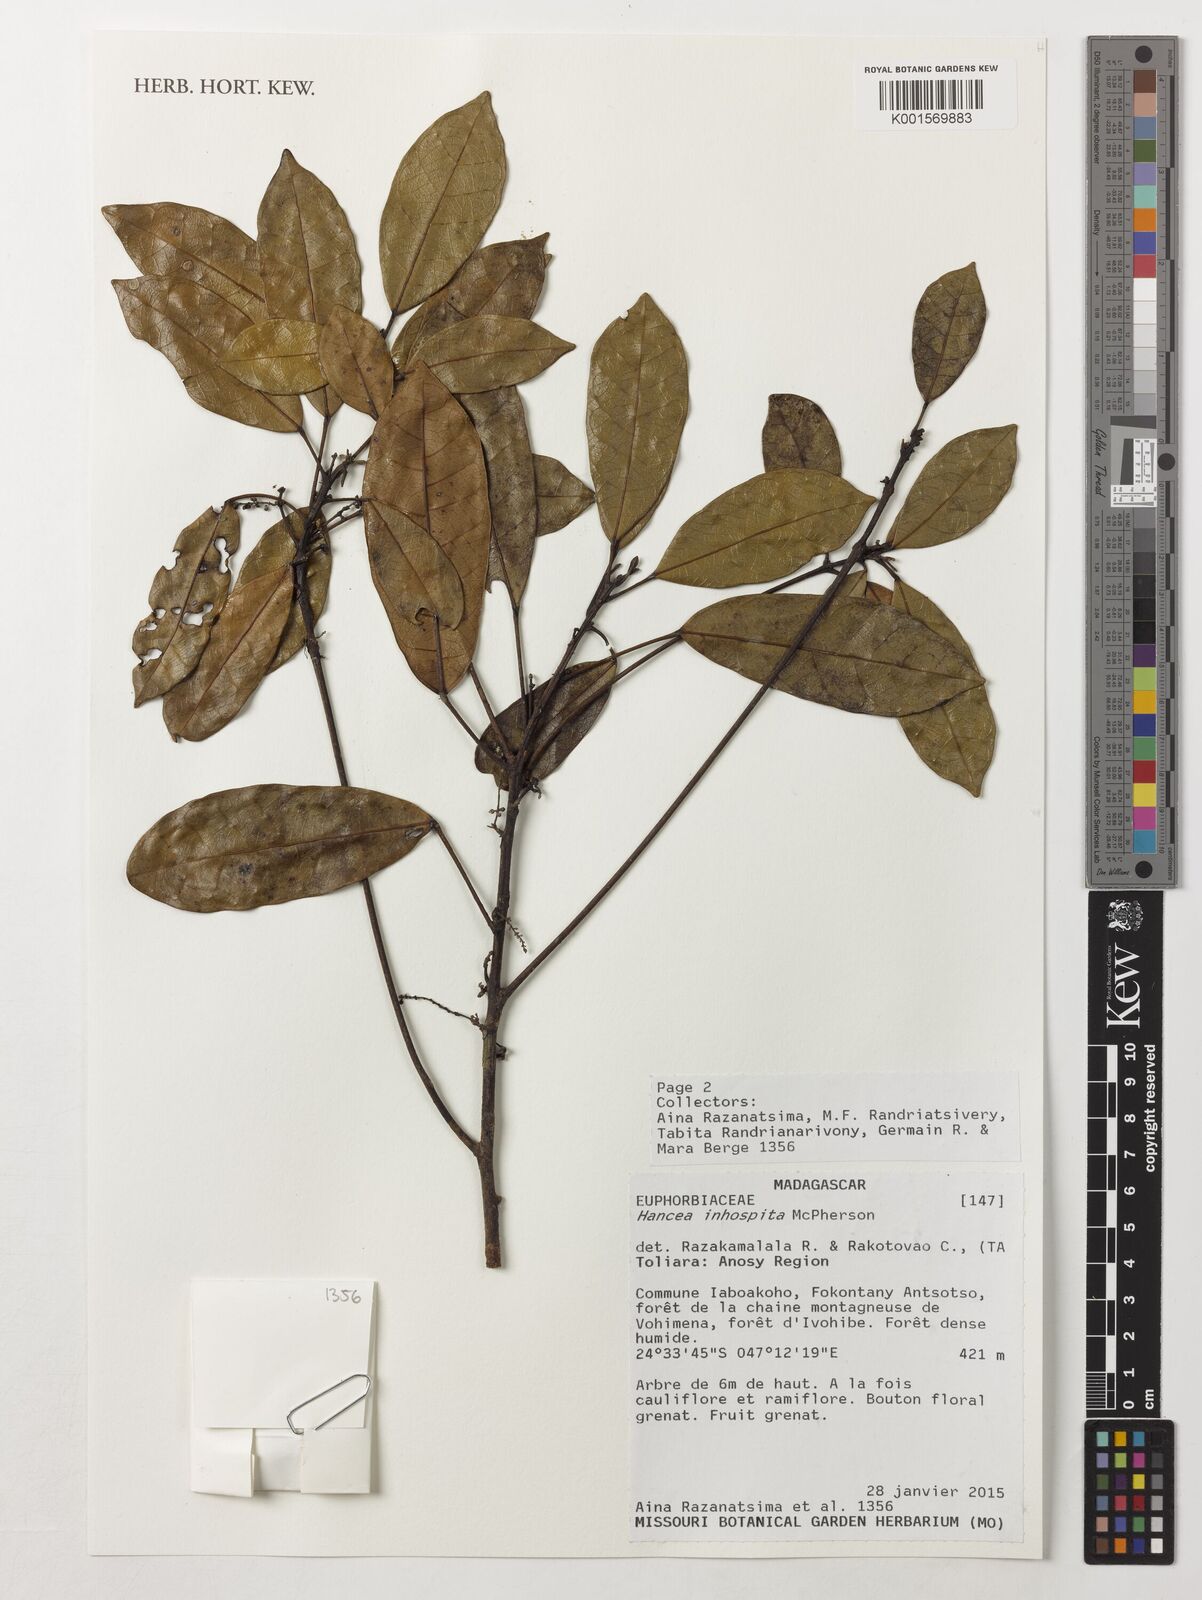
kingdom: Plantae
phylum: Tracheophyta
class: Magnoliopsida
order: Malpighiales
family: Euphorbiaceae
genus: Hancea
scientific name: Hancea inhospita
